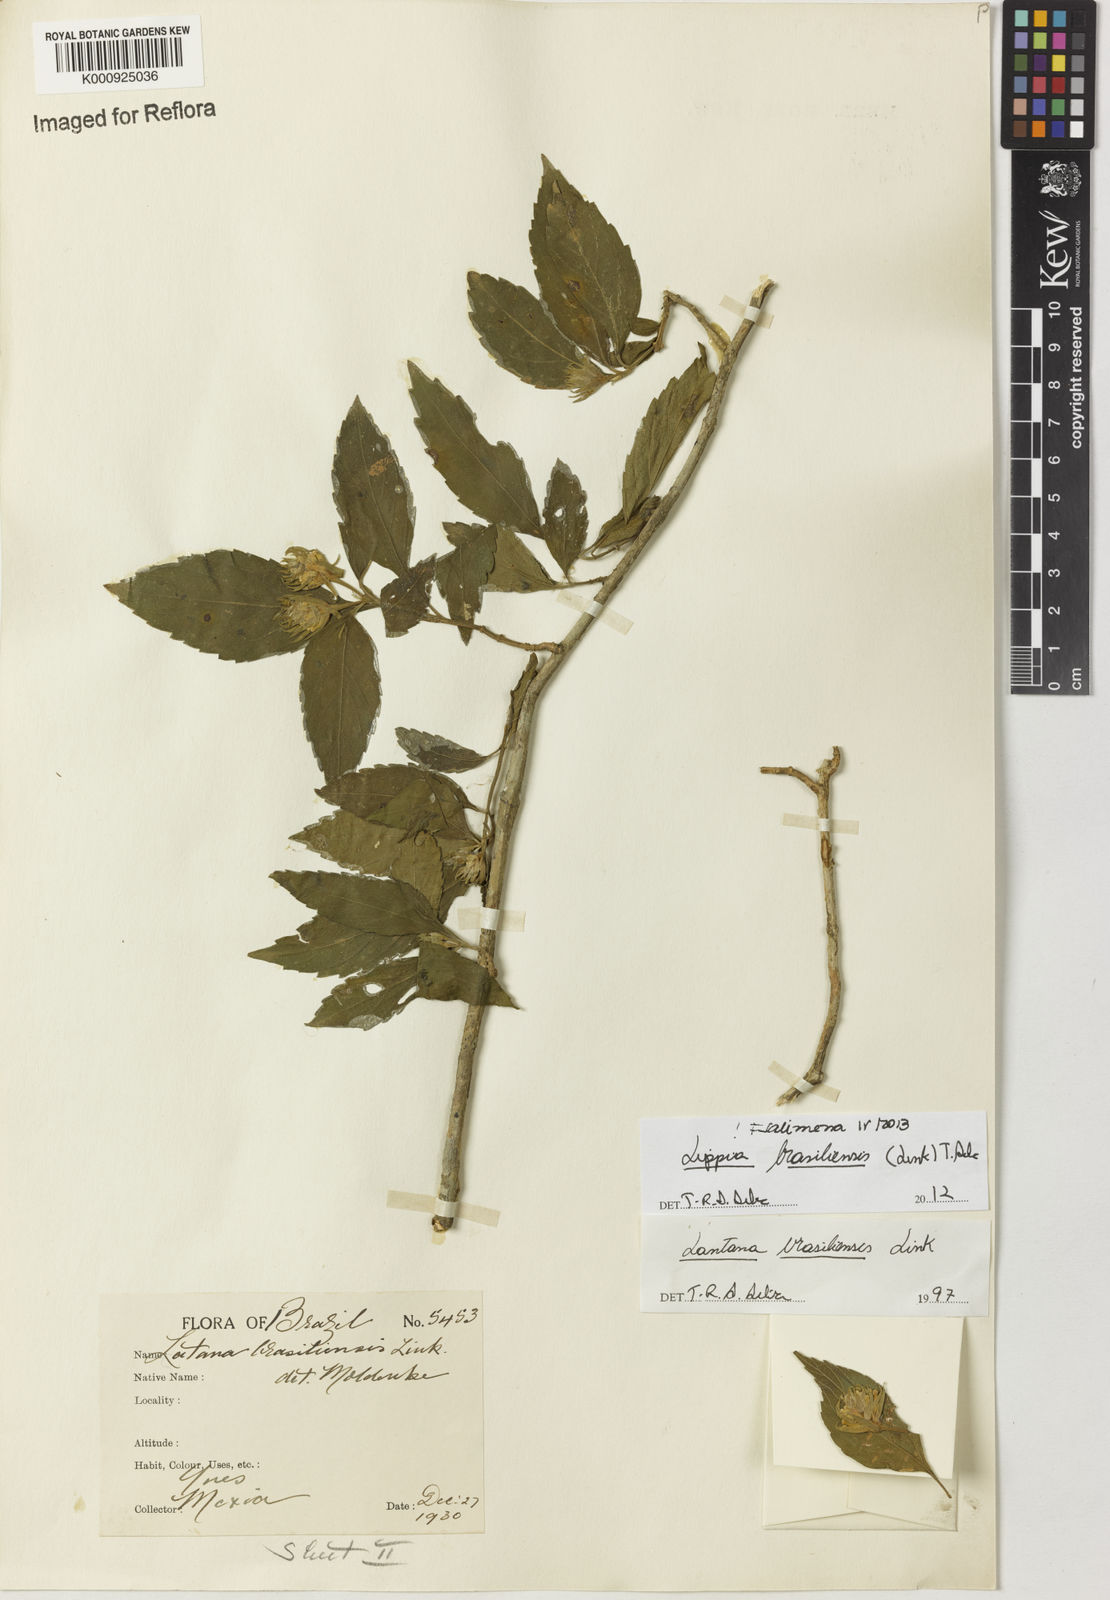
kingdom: Plantae
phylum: Tracheophyta
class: Magnoliopsida
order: Lamiales
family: Verbenaceae
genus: Lippia
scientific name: Lippia brasiliensis
